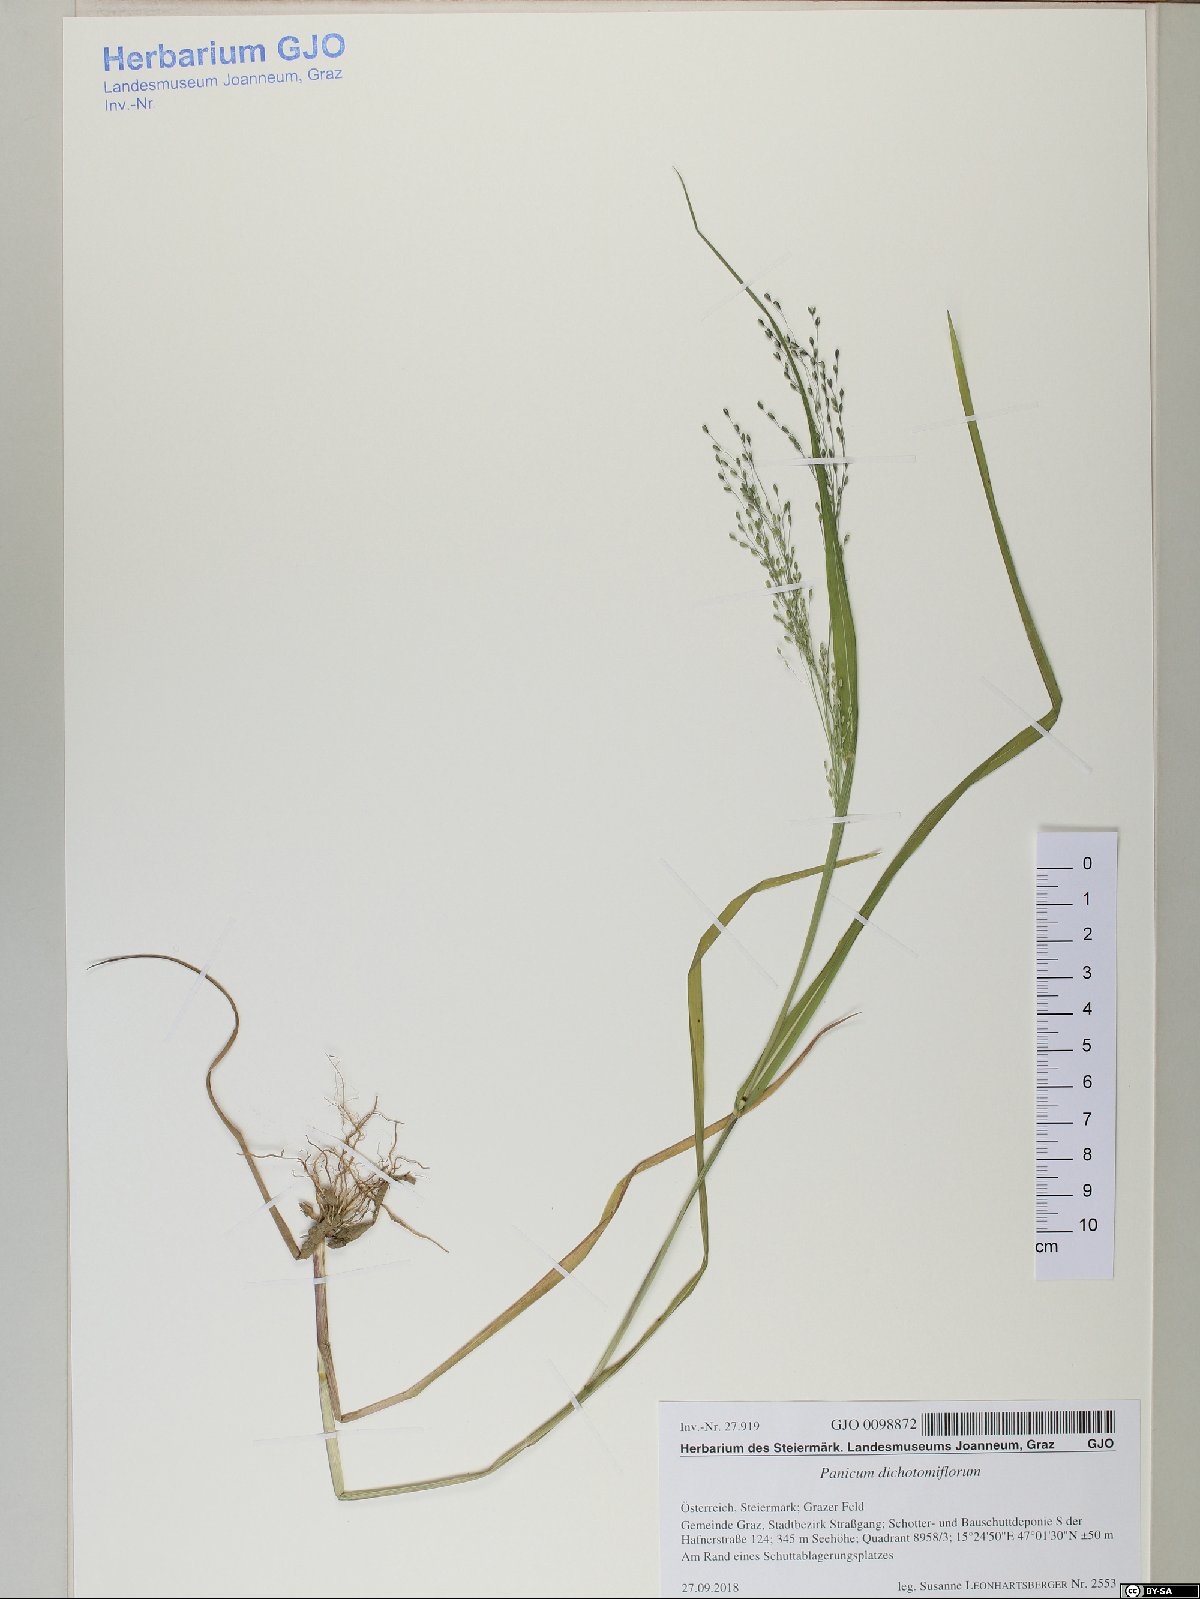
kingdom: Plantae
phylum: Tracheophyta
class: Liliopsida
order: Poales
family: Poaceae
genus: Panicum
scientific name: Panicum dichotomiflorum
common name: Autumn millet
